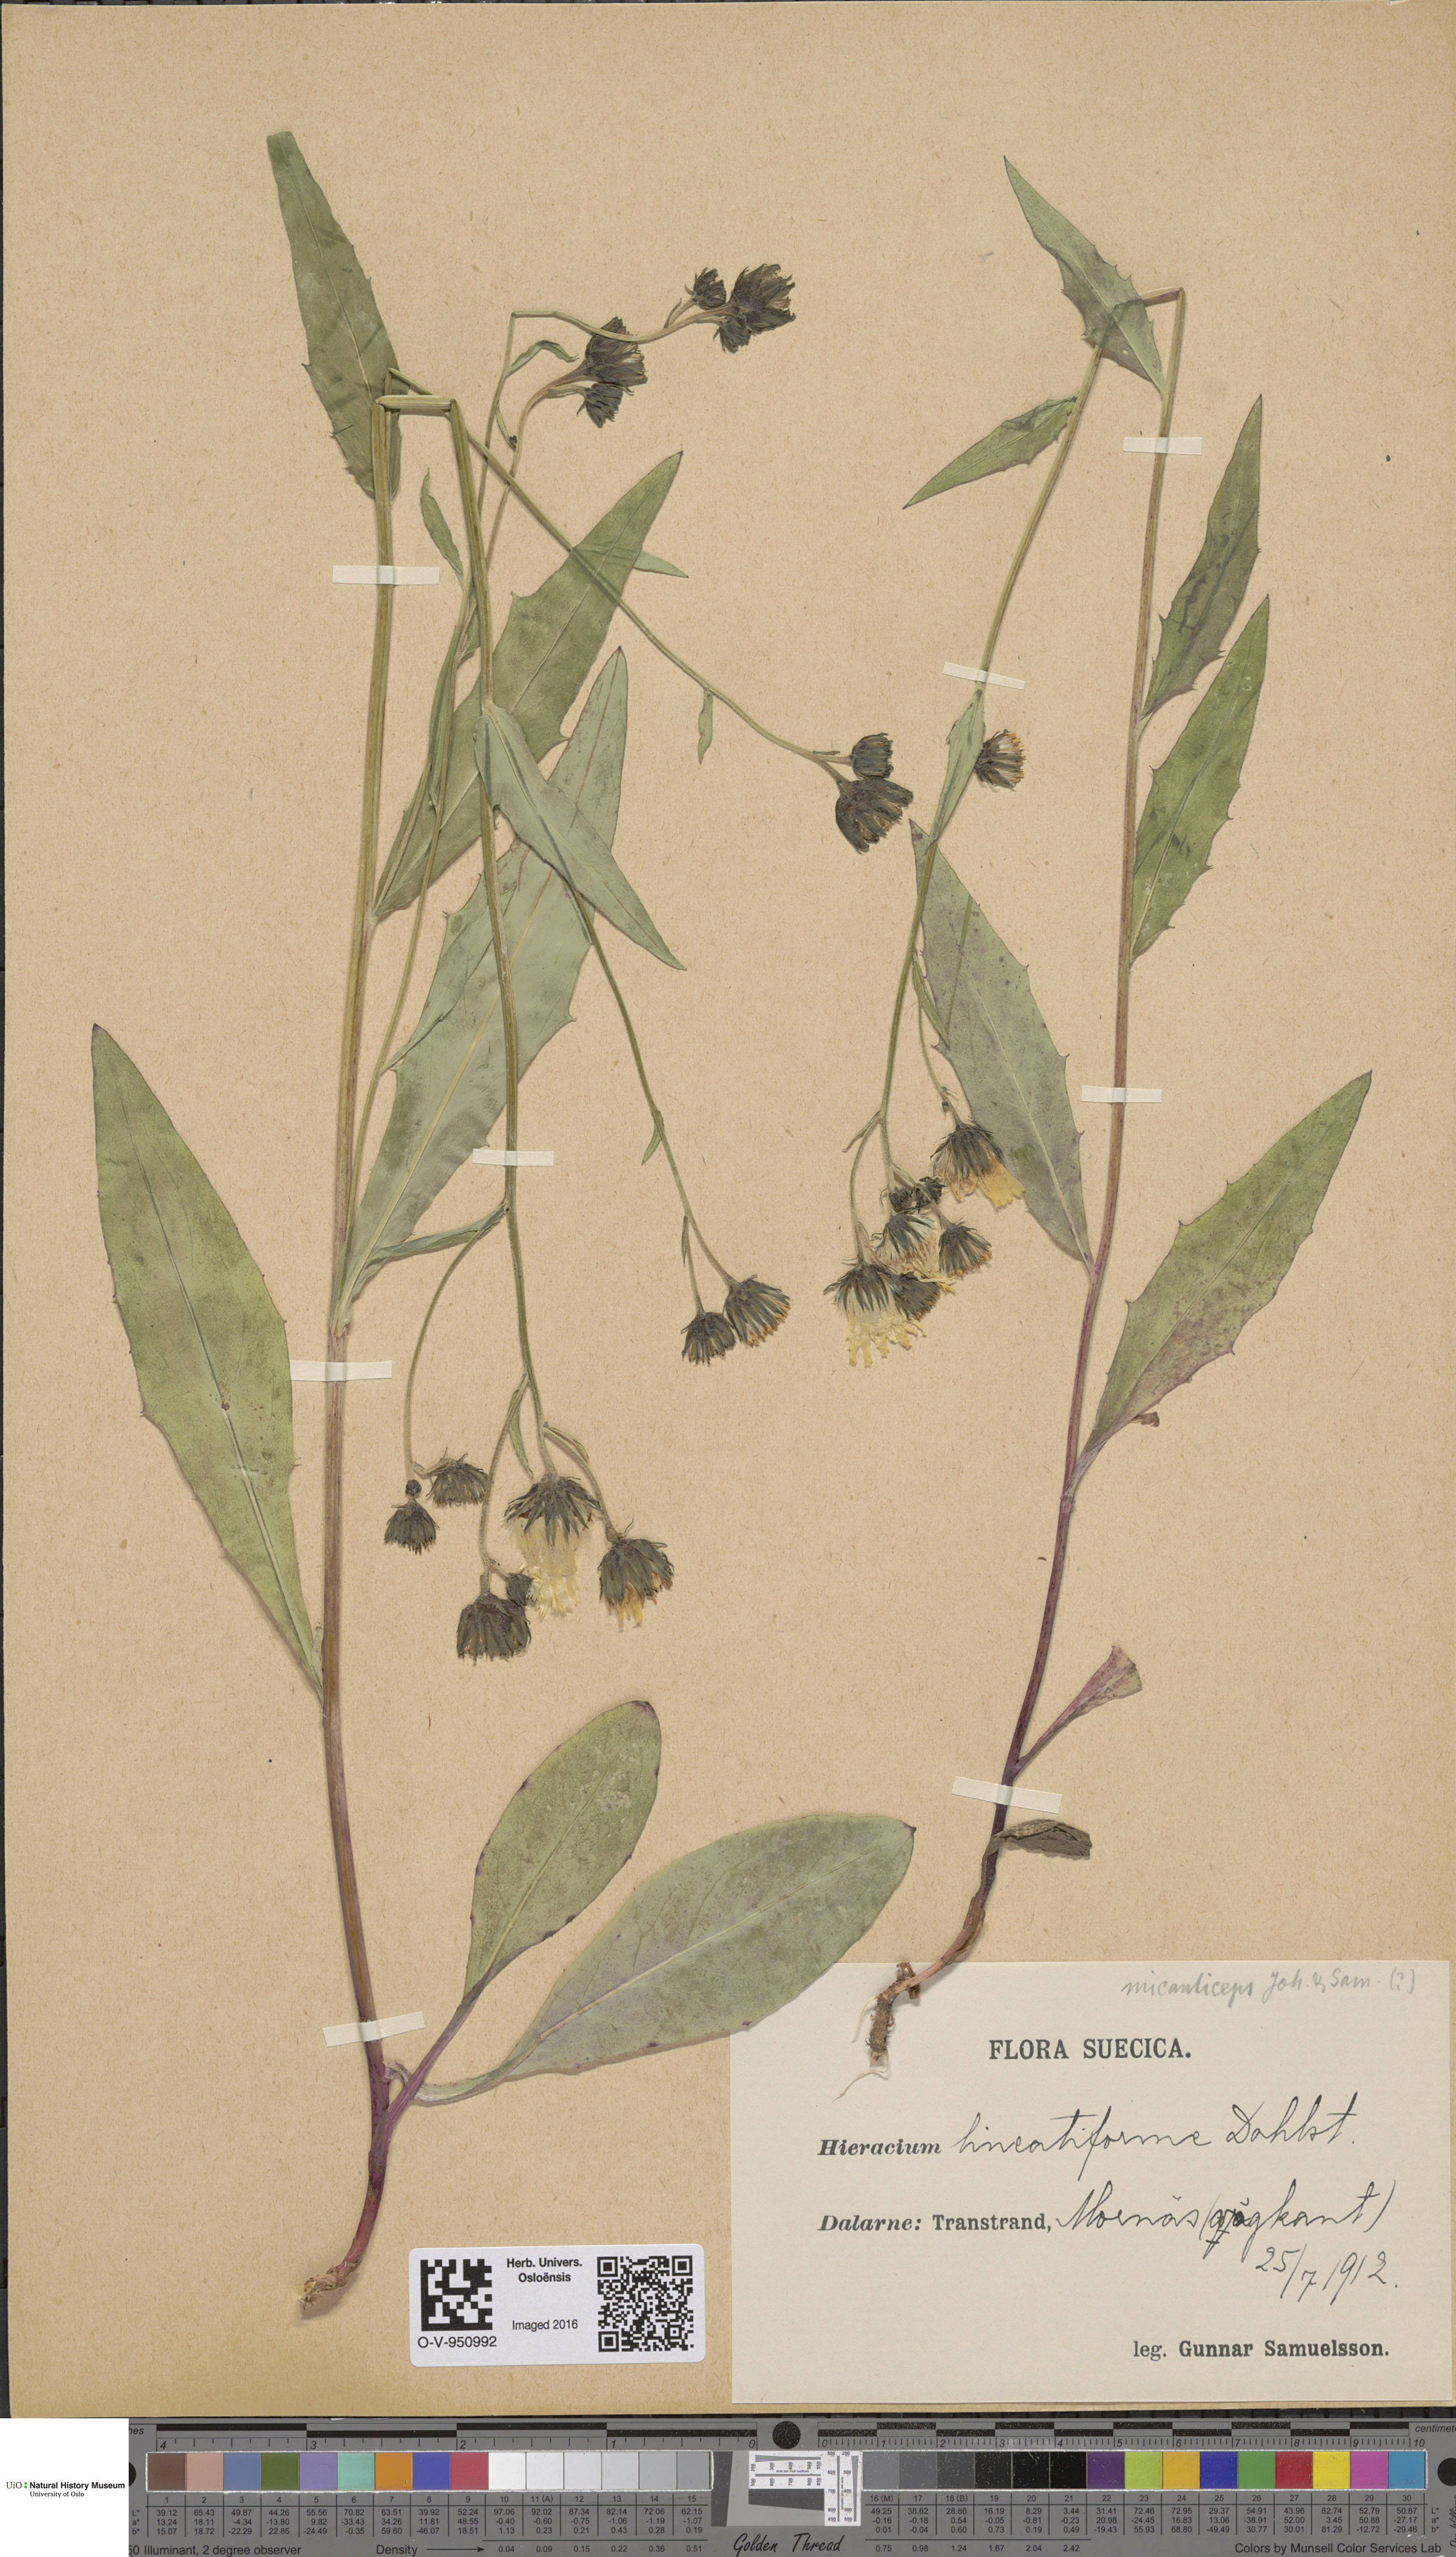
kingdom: Plantae
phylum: Tracheophyta
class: Magnoliopsida
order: Asterales
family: Asteraceae
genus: Hieracium
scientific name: Hieracium
